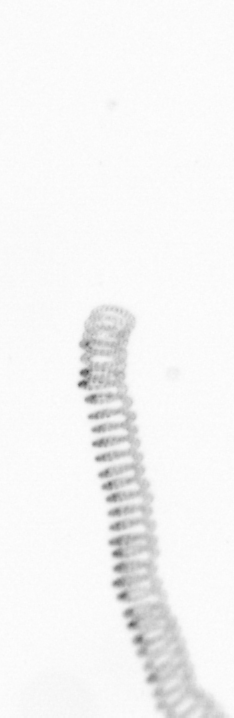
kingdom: Chromista
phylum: Ochrophyta
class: Bacillariophyceae
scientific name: Bacillariophyceae
